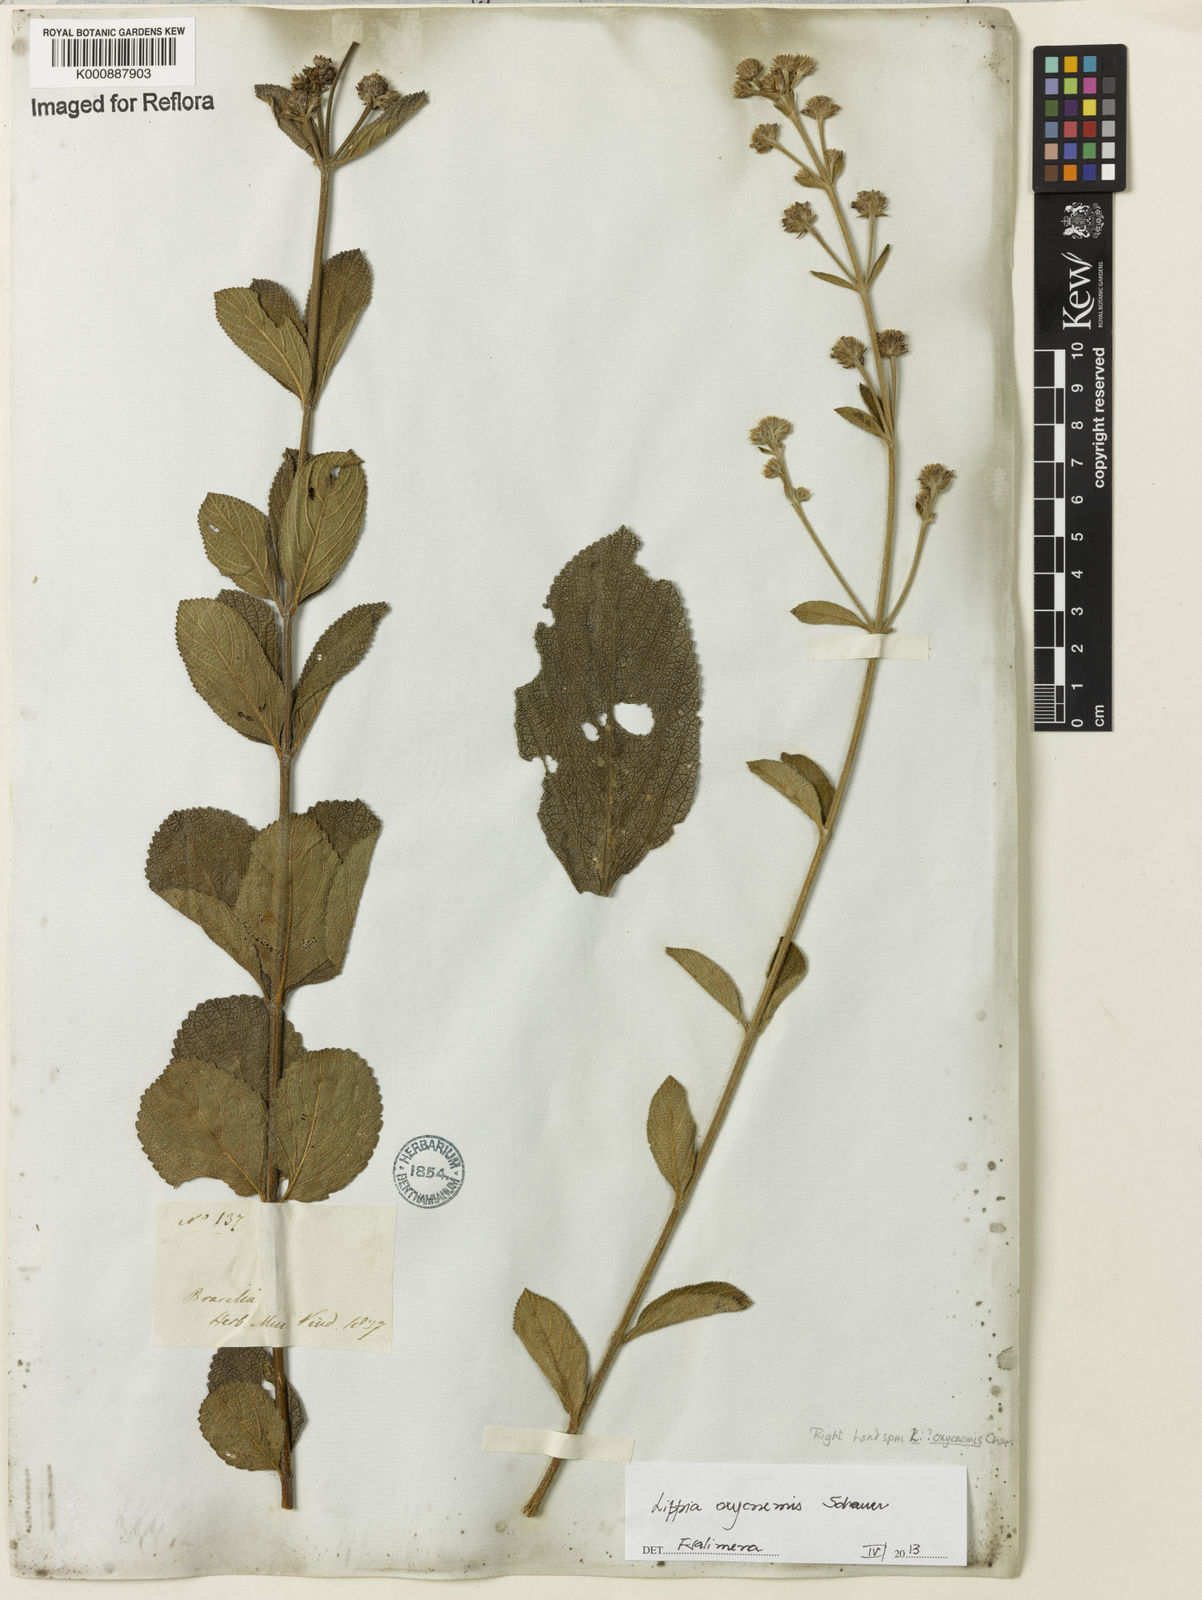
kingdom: Plantae
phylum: Tracheophyta
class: Magnoliopsida
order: Lamiales
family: Verbenaceae
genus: Lippia
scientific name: Lippia oxycnemis
